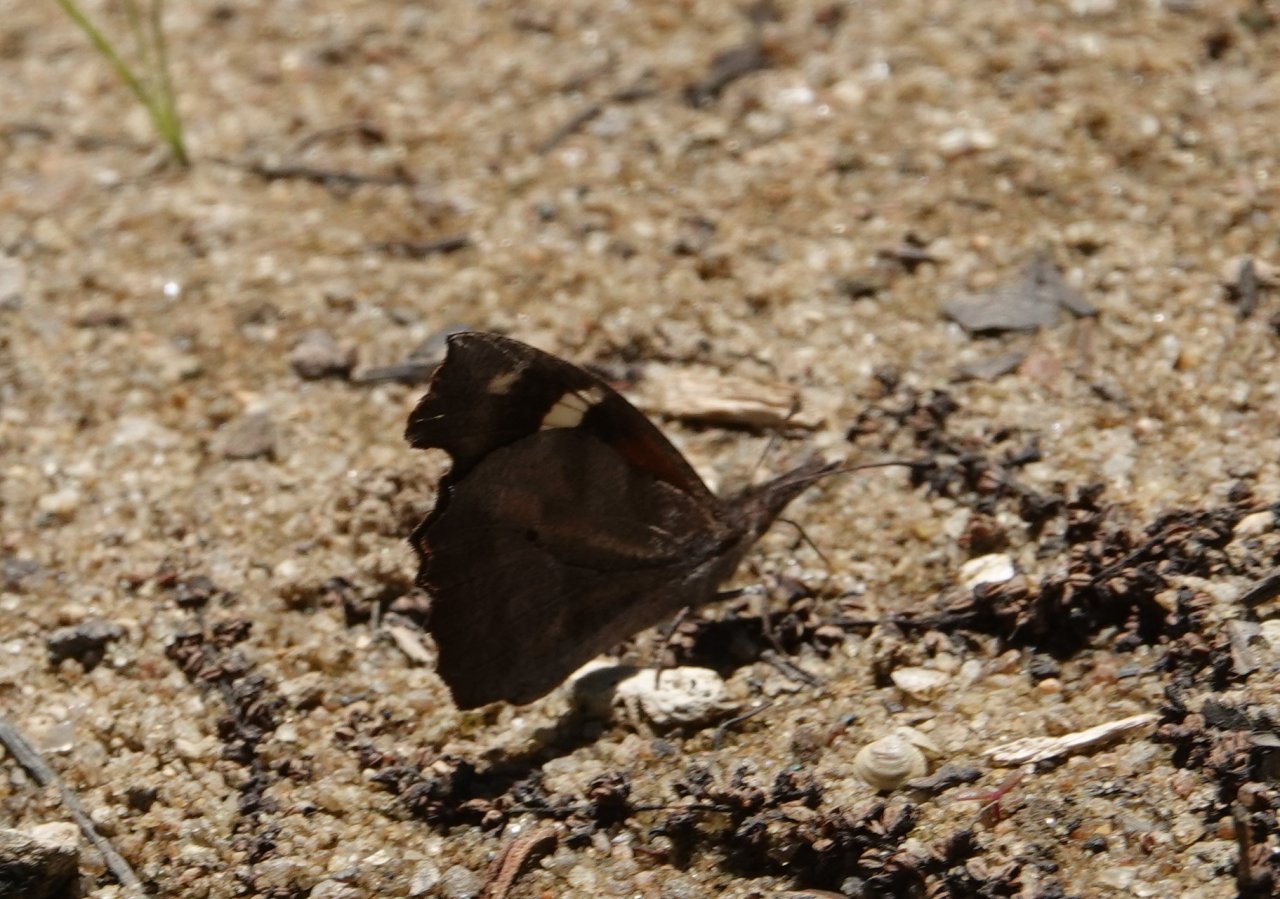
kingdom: Animalia
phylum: Arthropoda
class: Insecta
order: Lepidoptera
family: Nymphalidae
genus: Libytheana
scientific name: Libytheana carinenta
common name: American Snout
